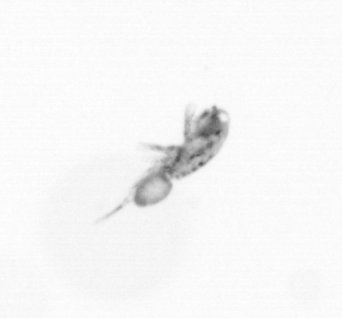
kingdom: Animalia
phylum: Arthropoda
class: Copepoda
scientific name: Copepoda
